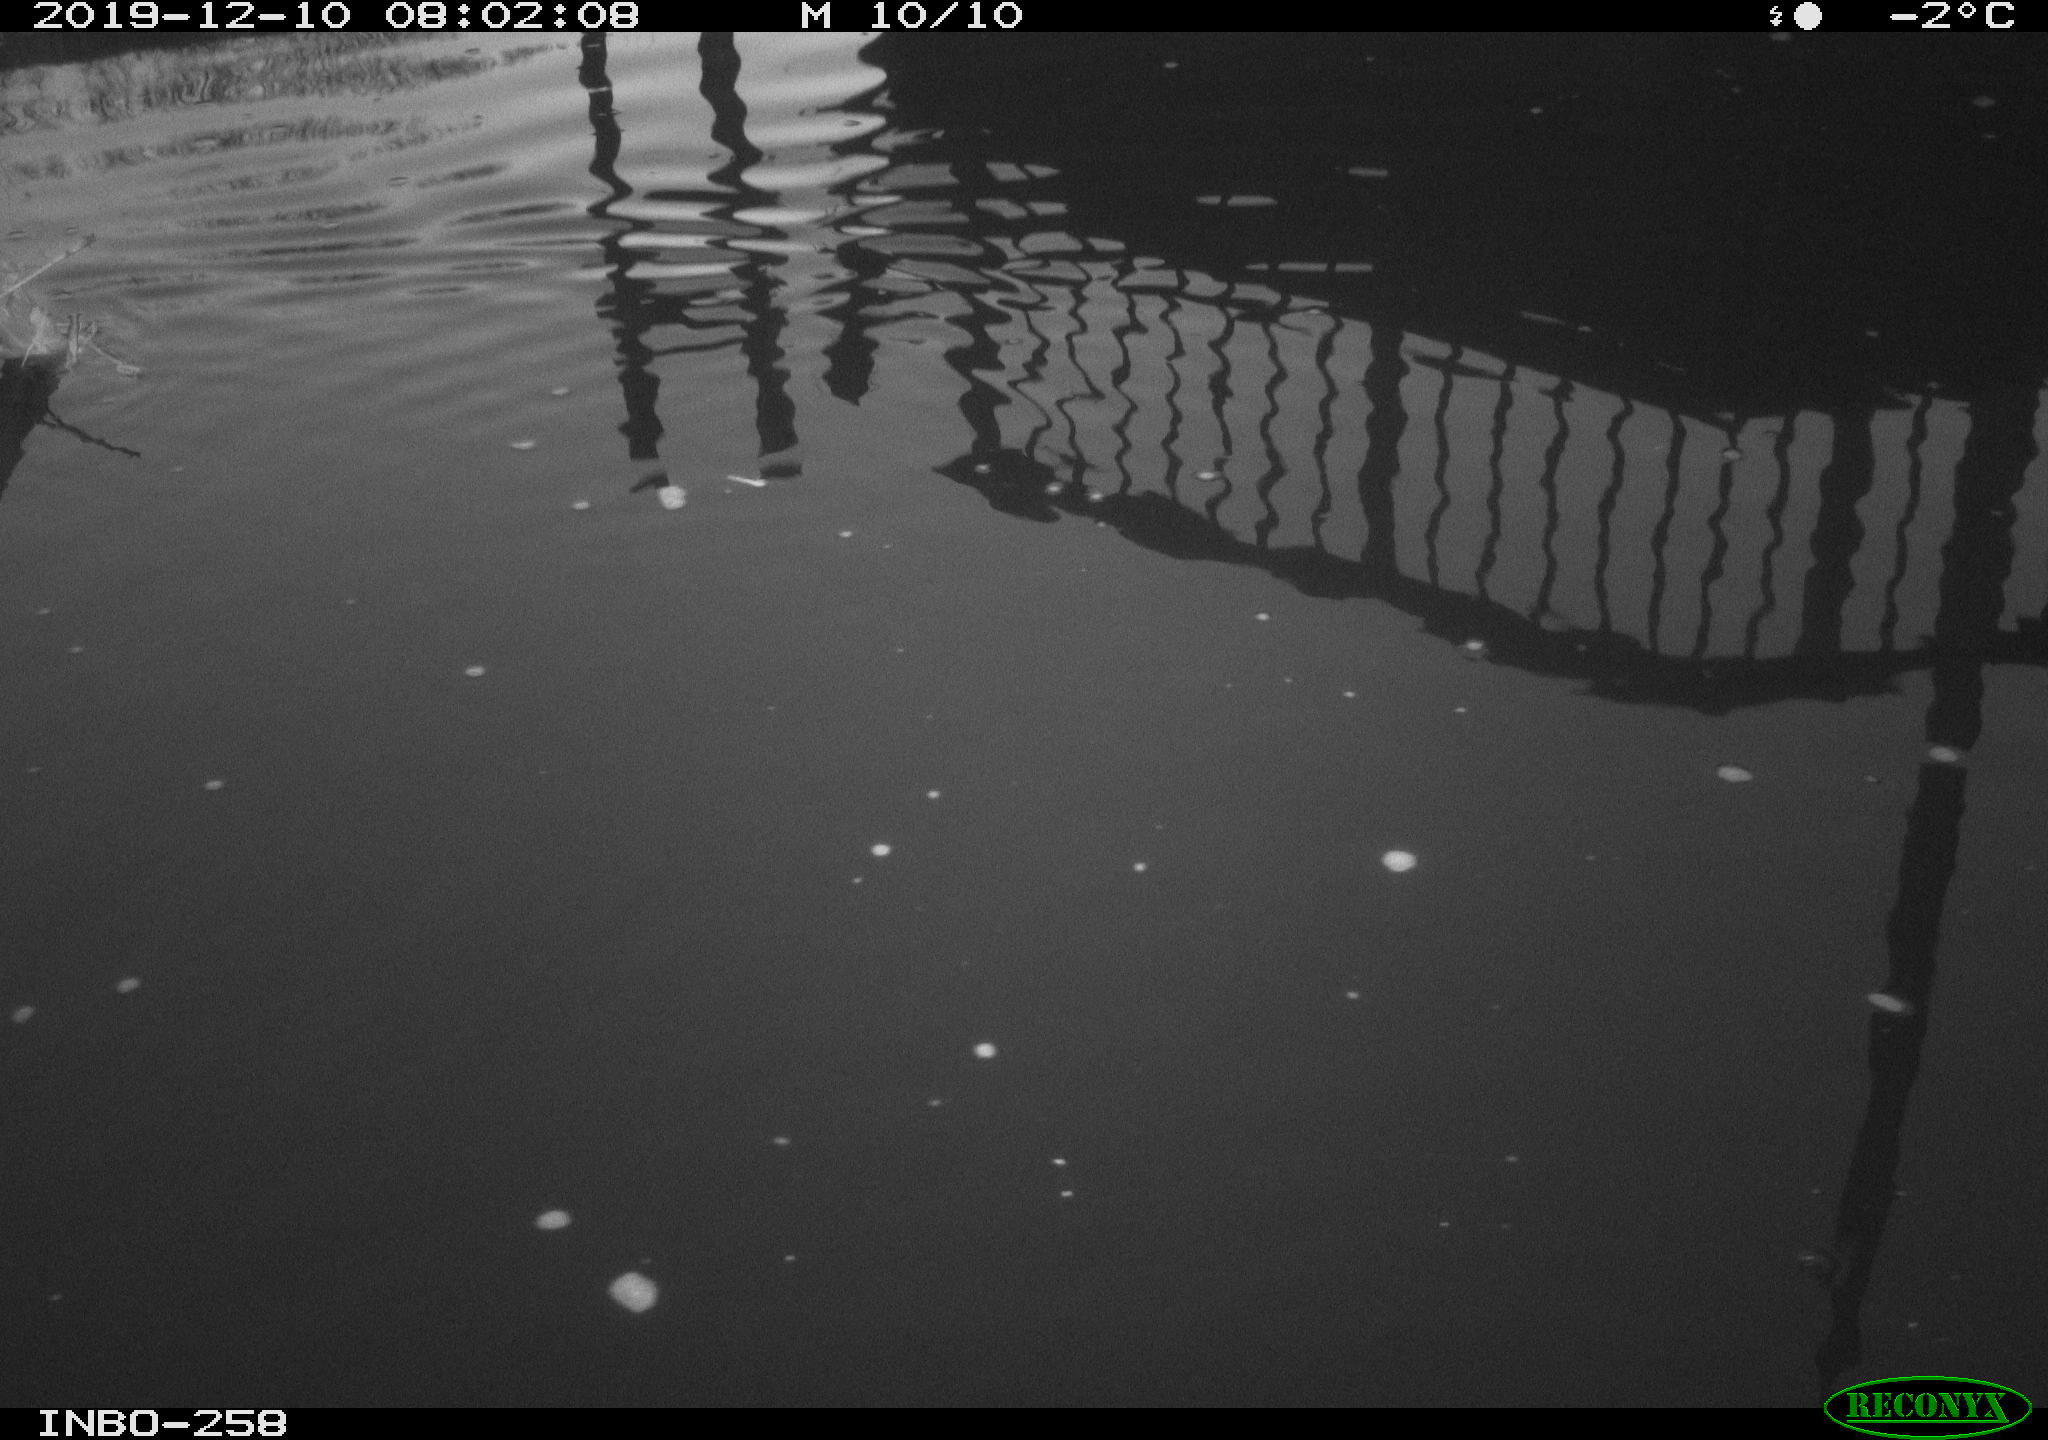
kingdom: Animalia
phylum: Chordata
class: Aves
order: Gruiformes
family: Rallidae
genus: Gallinula
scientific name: Gallinula chloropus
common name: Common moorhen
